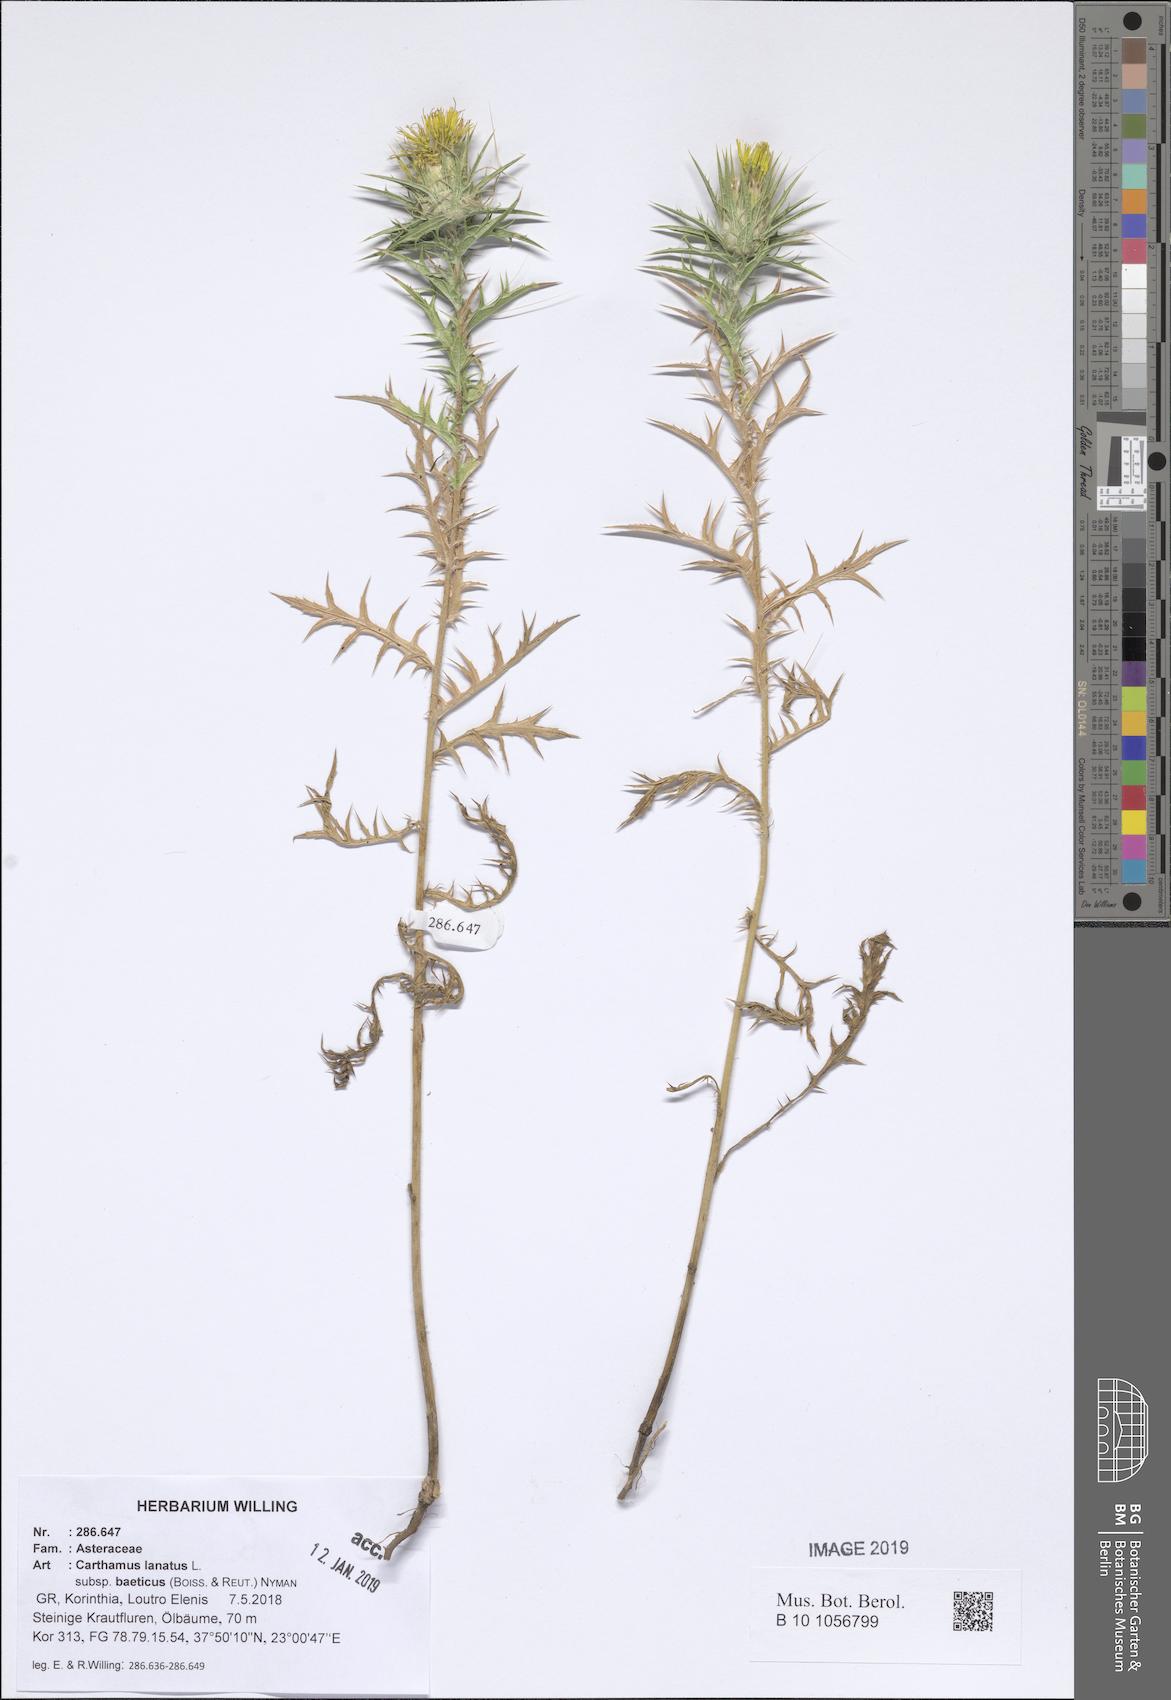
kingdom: Plantae
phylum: Tracheophyta
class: Magnoliopsida
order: Asterales
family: Asteraceae
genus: Carthamus
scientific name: Carthamus creticus
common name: Smooth distaff thistle
